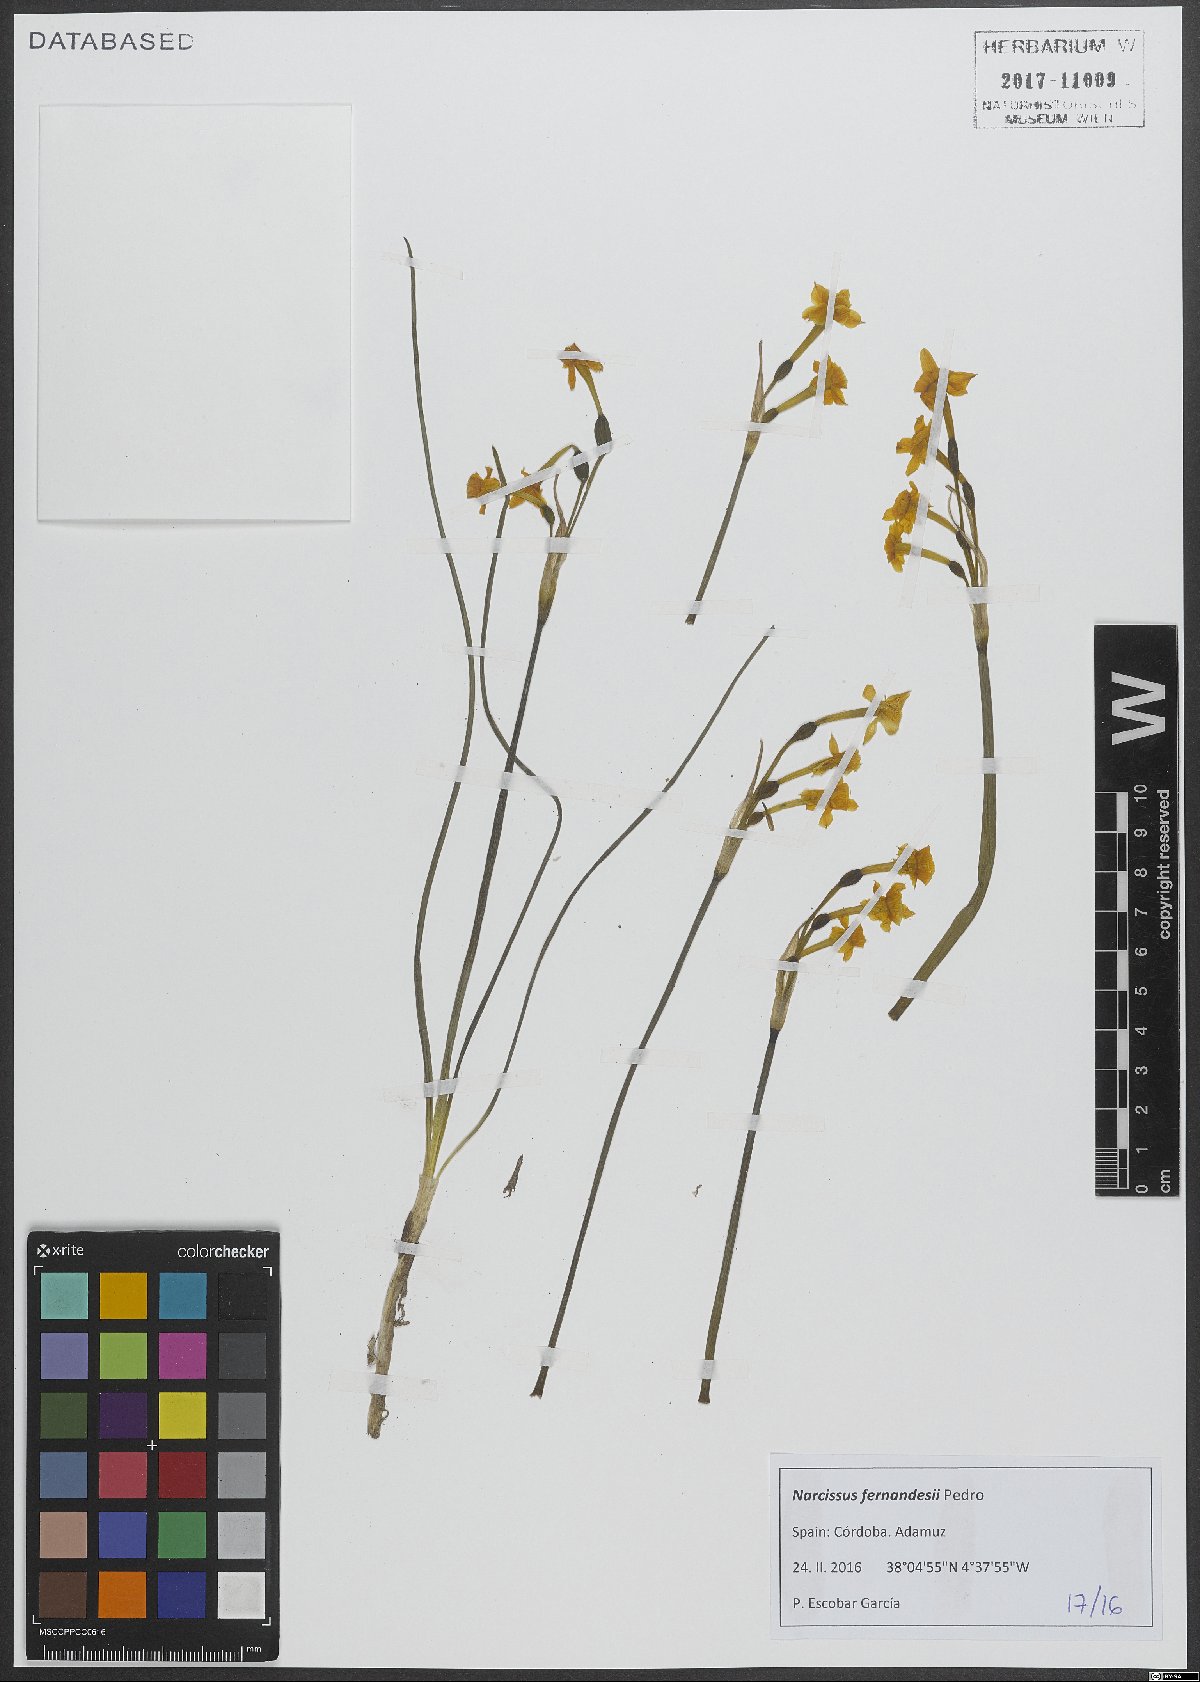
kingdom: Plantae
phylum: Tracheophyta
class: Liliopsida
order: Asparagales
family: Amaryllidaceae
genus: Narcissus
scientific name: Narcissus flavus
